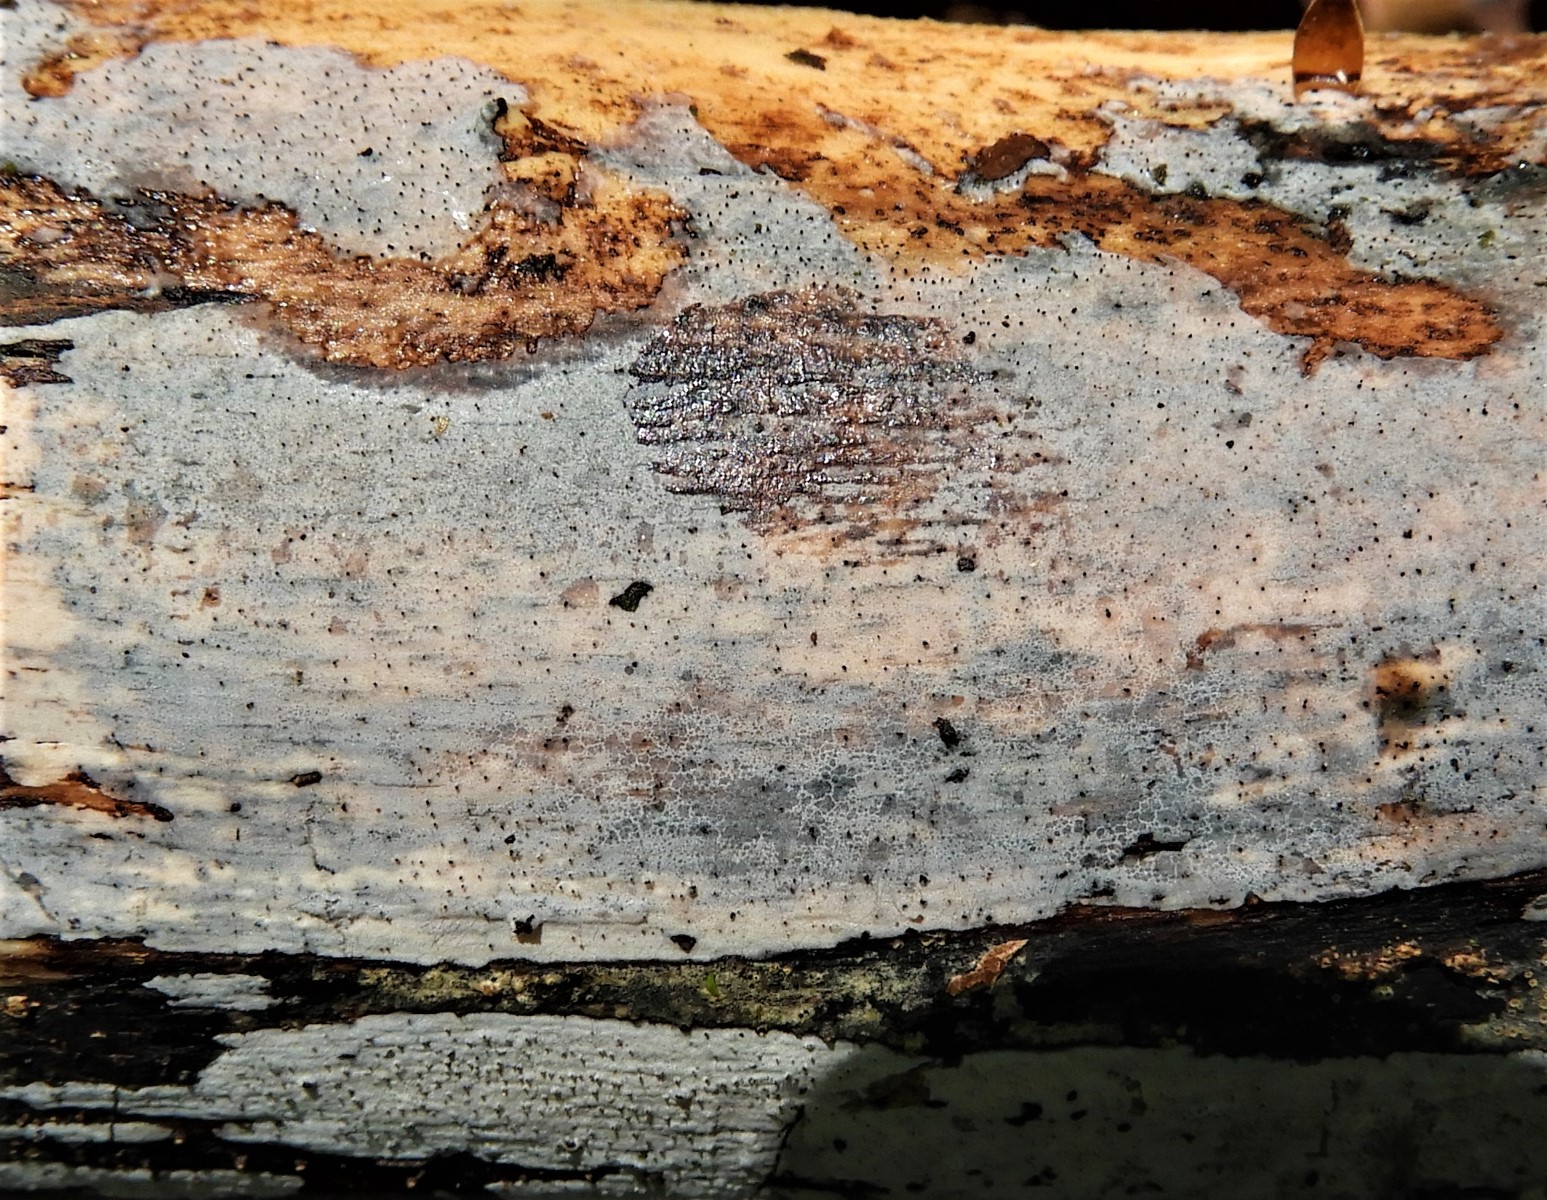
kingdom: Fungi
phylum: Basidiomycota
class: Tremellomycetes
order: Tremellales
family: Exidiaceae
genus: Exidiopsis
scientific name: Exidiopsis effusa
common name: smuk bævrehinde
